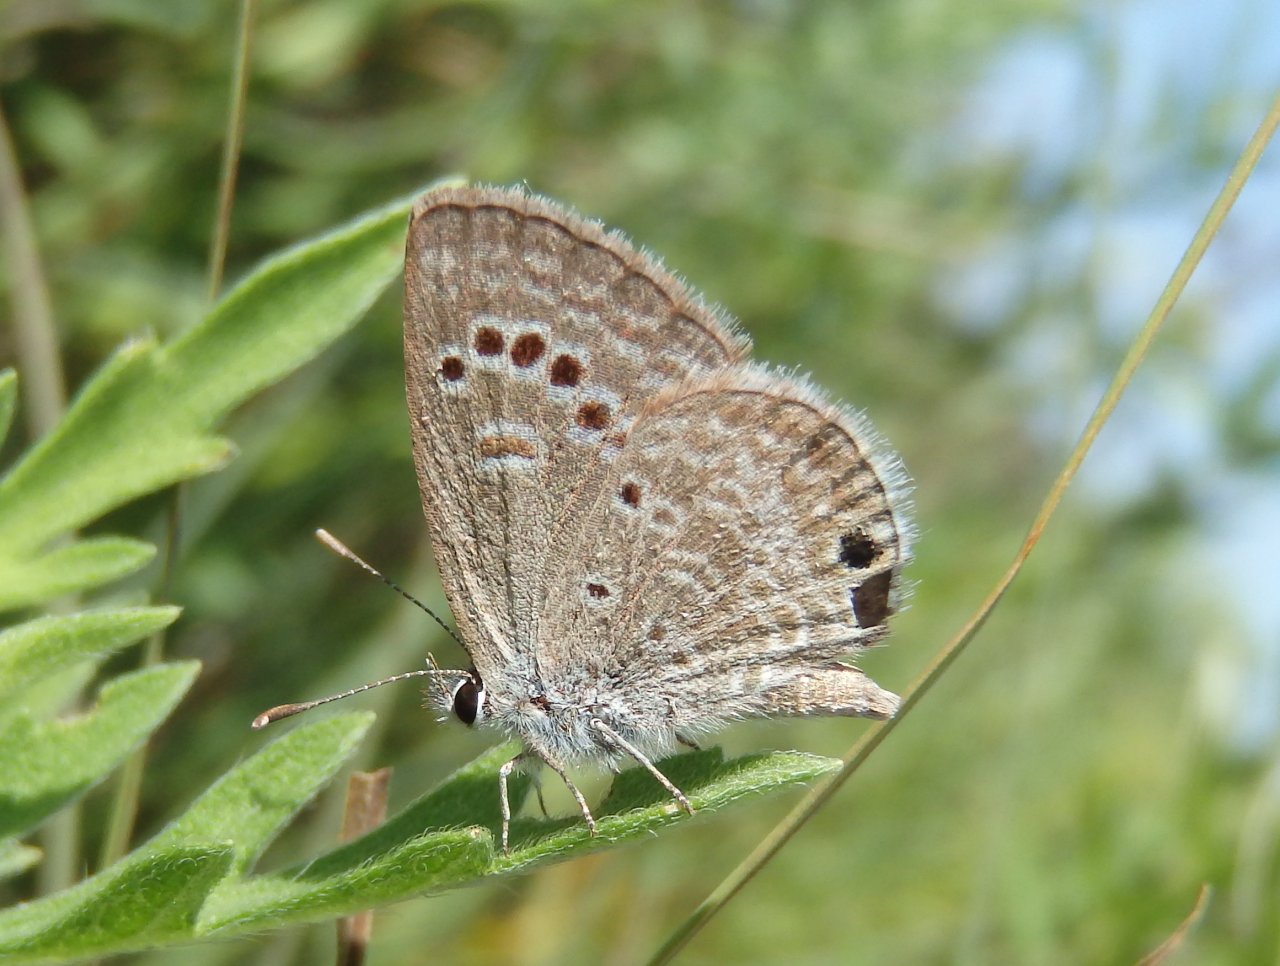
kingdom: Animalia
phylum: Arthropoda
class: Insecta
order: Lepidoptera
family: Lycaenidae
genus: Echinargus
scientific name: Echinargus isola
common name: Reakirt's Blue
